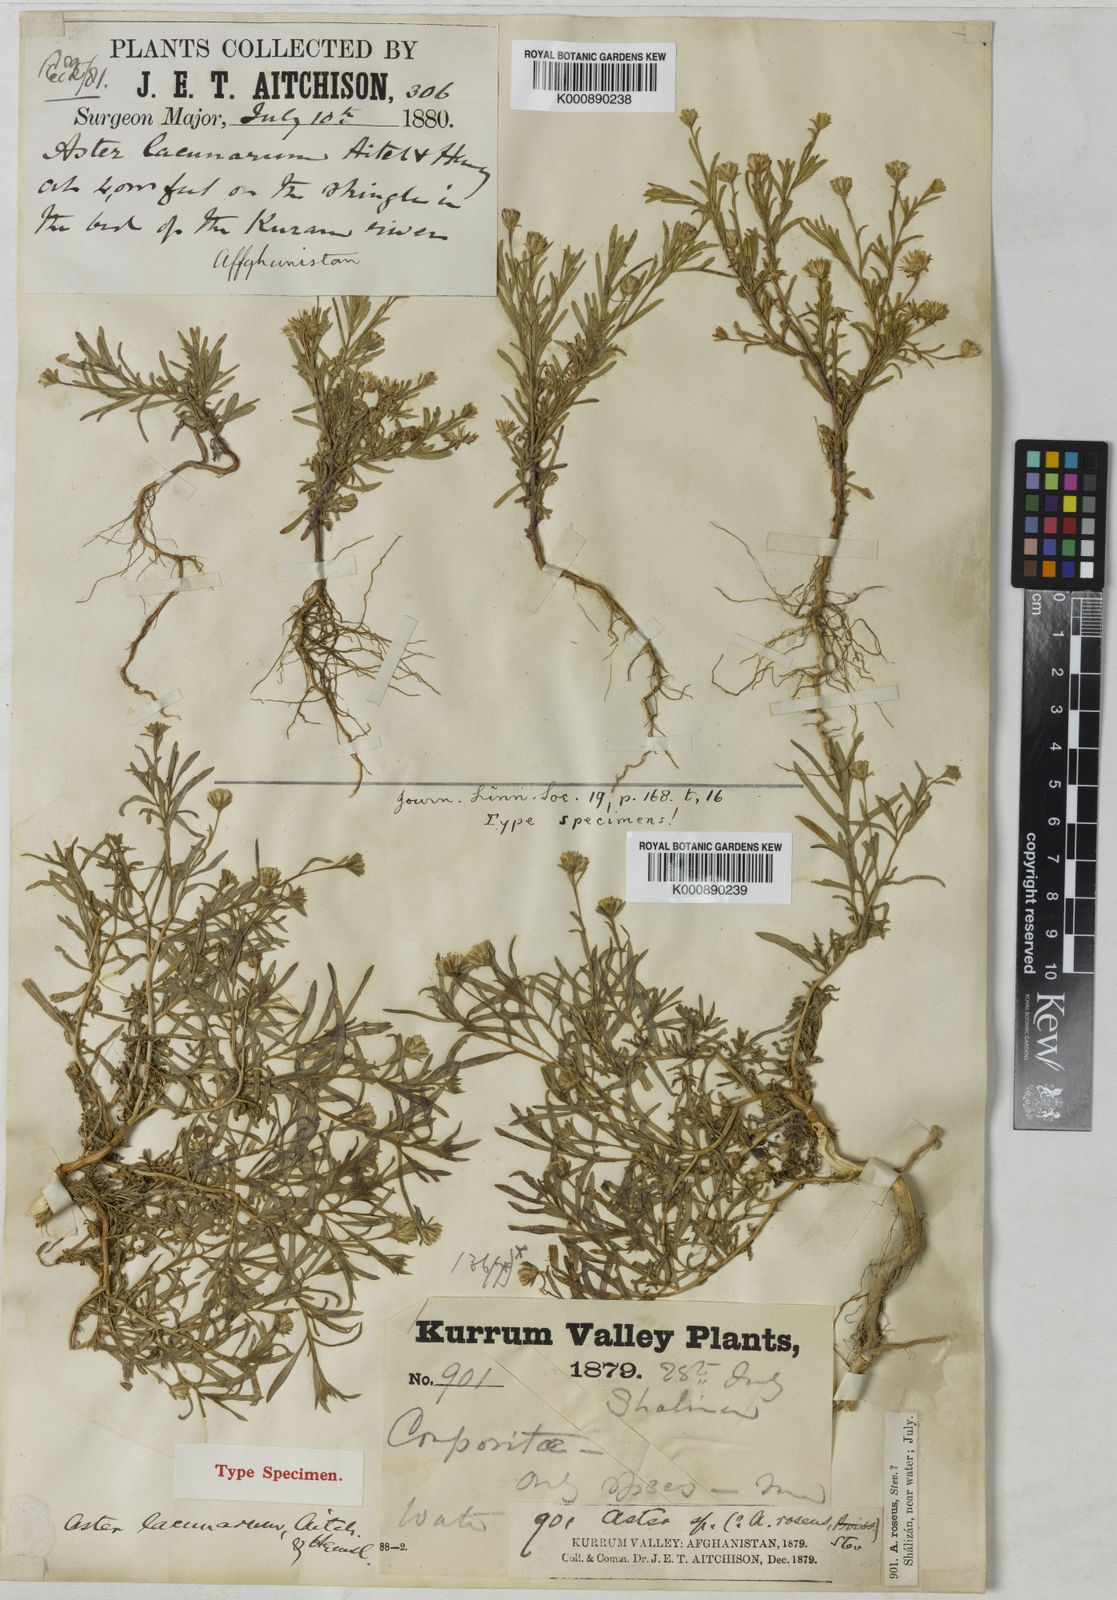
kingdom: Plantae
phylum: Tracheophyta
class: Magnoliopsida
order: Asterales
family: Asteraceae
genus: Chamaegeron
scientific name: Chamaegeron oligocephalus
